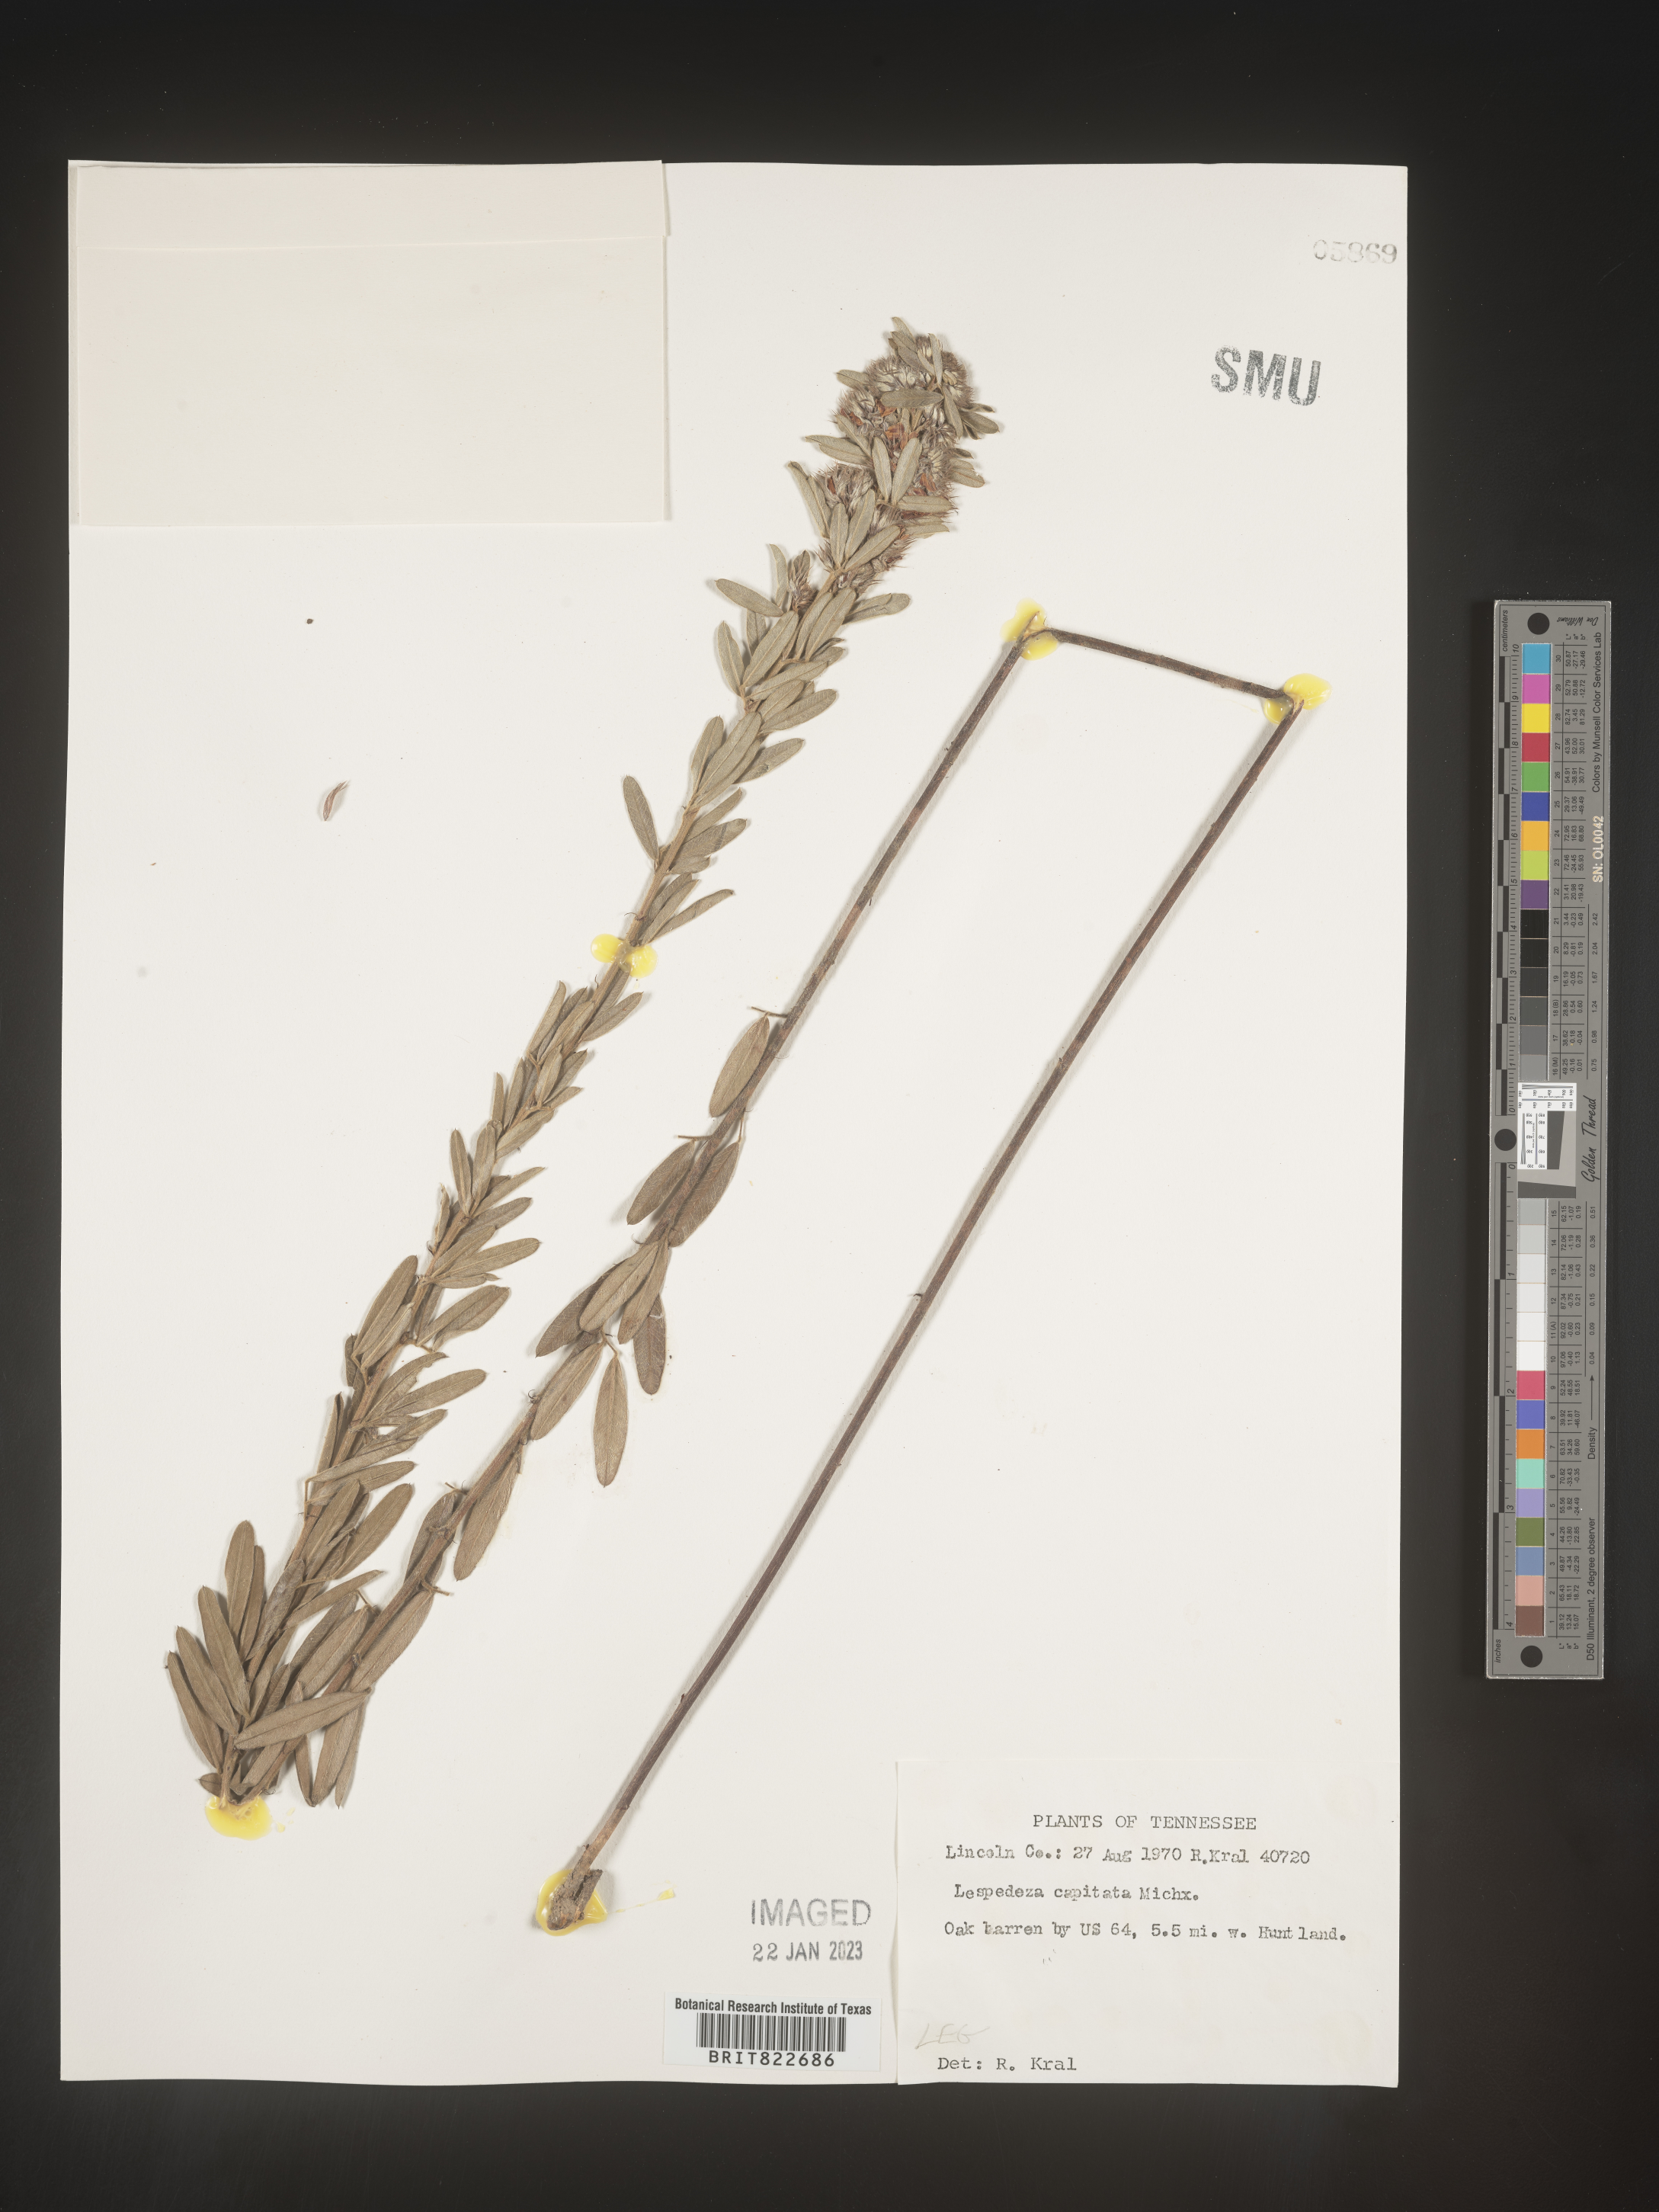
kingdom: Plantae
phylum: Tracheophyta
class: Magnoliopsida
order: Fabales
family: Fabaceae
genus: Lespedeza
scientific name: Lespedeza capitata
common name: Dusty clover
